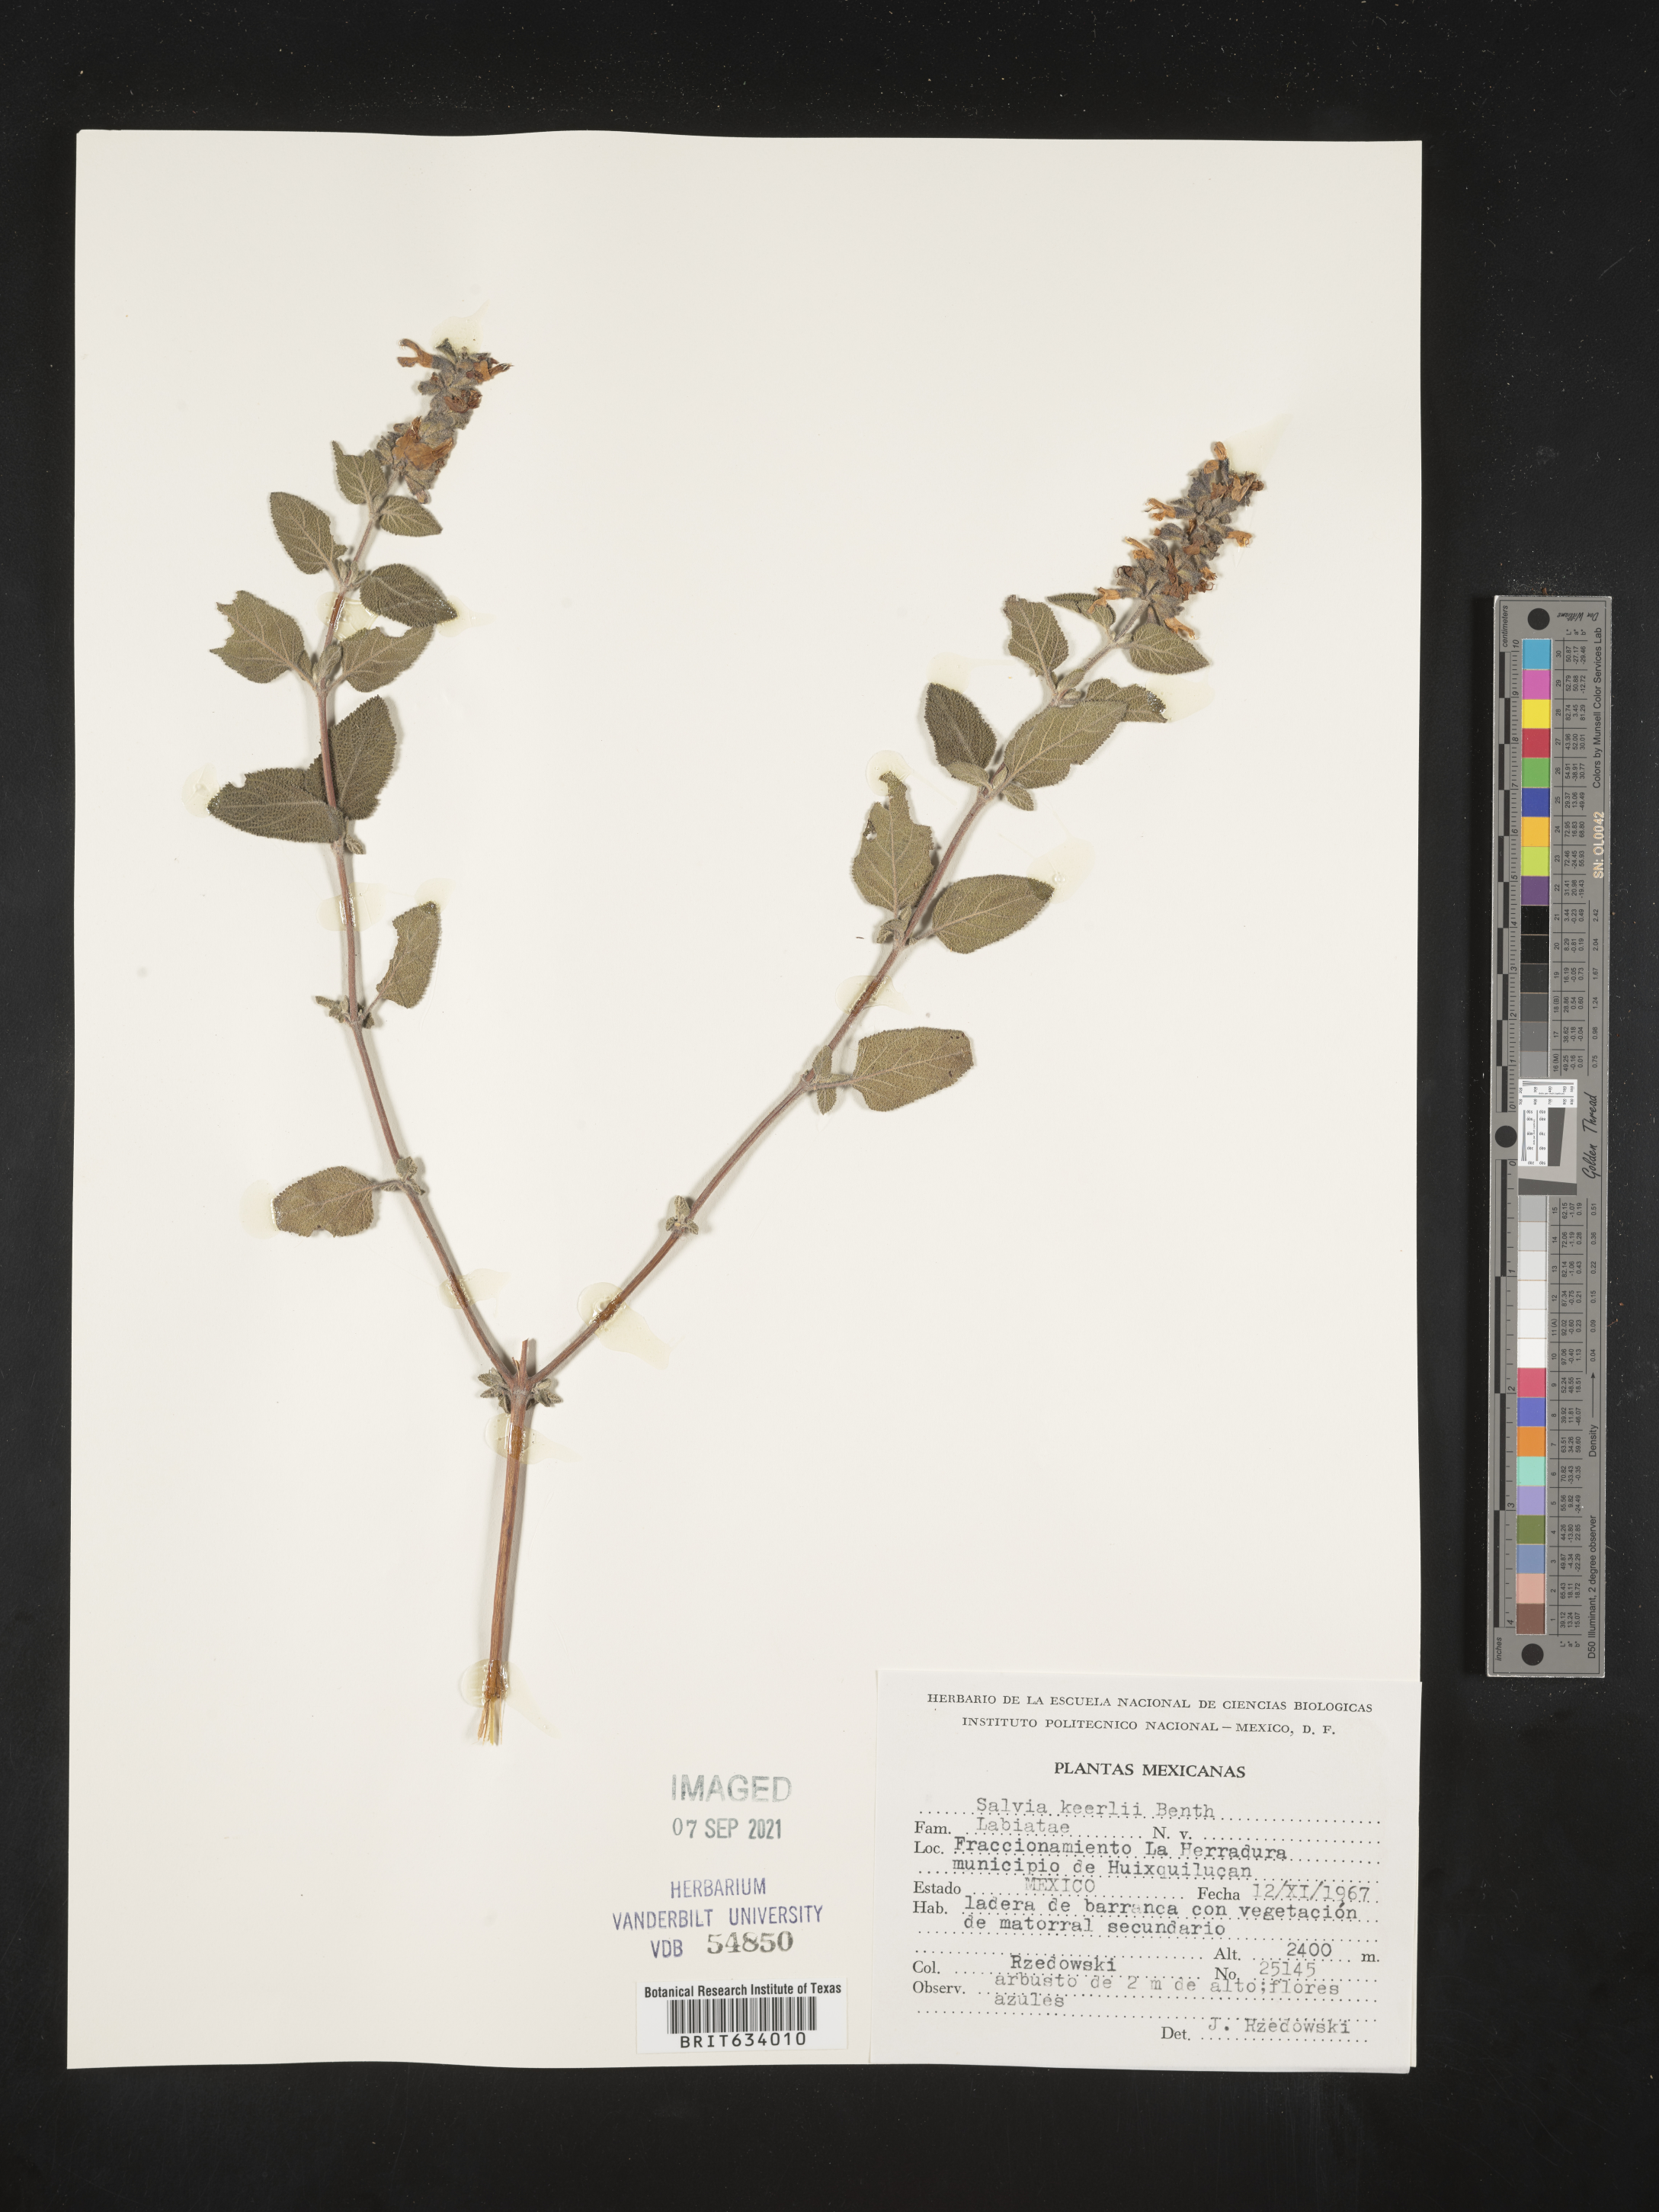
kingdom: Plantae
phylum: Tracheophyta
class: Magnoliopsida
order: Lamiales
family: Lamiaceae
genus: Salvia
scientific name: Salvia
